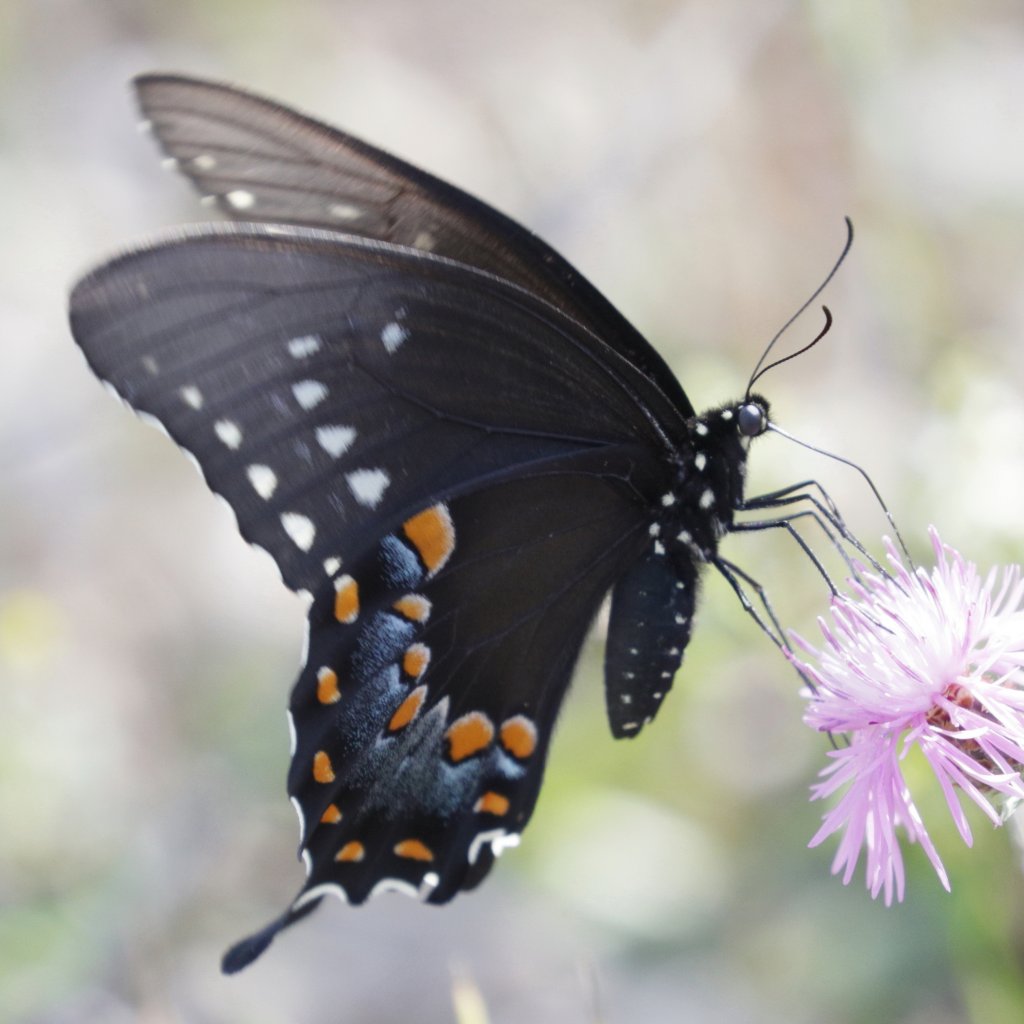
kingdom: Animalia
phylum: Arthropoda
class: Insecta
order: Lepidoptera
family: Papilionidae
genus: Pterourus
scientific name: Pterourus troilus
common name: Spicebush Swallowtail
